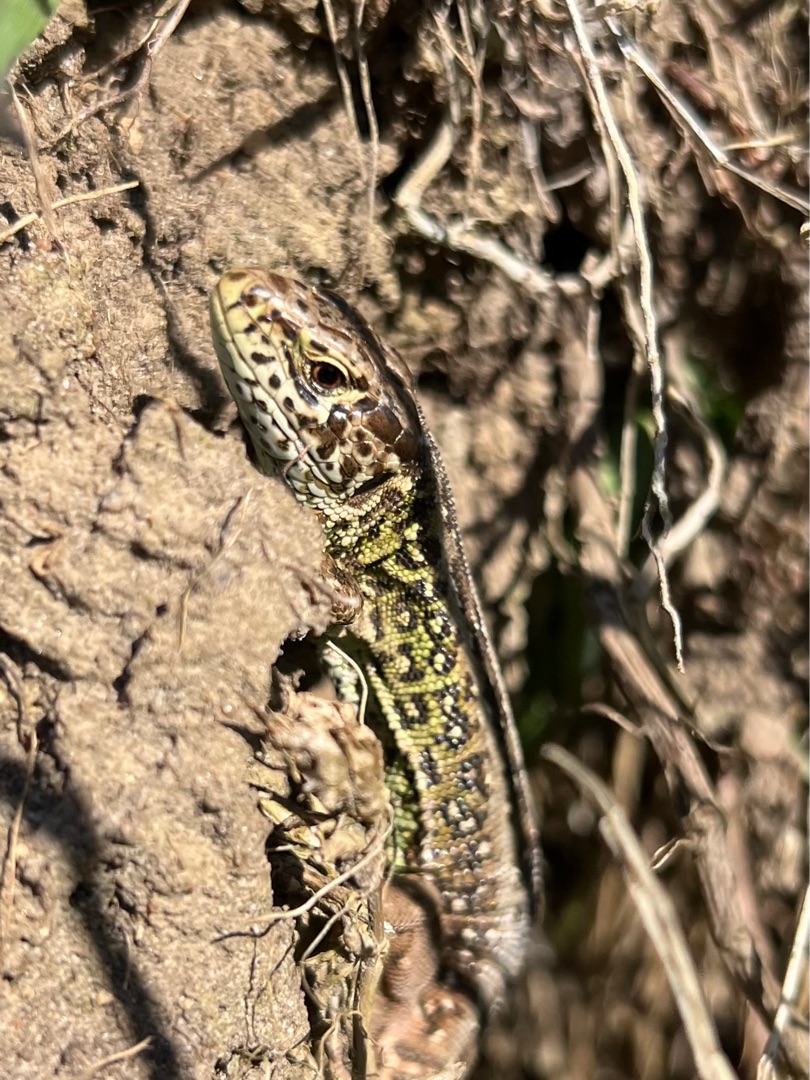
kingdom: Animalia
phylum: Chordata
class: Squamata
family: Lacertidae
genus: Lacerta
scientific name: Lacerta agilis
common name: Markfirben
